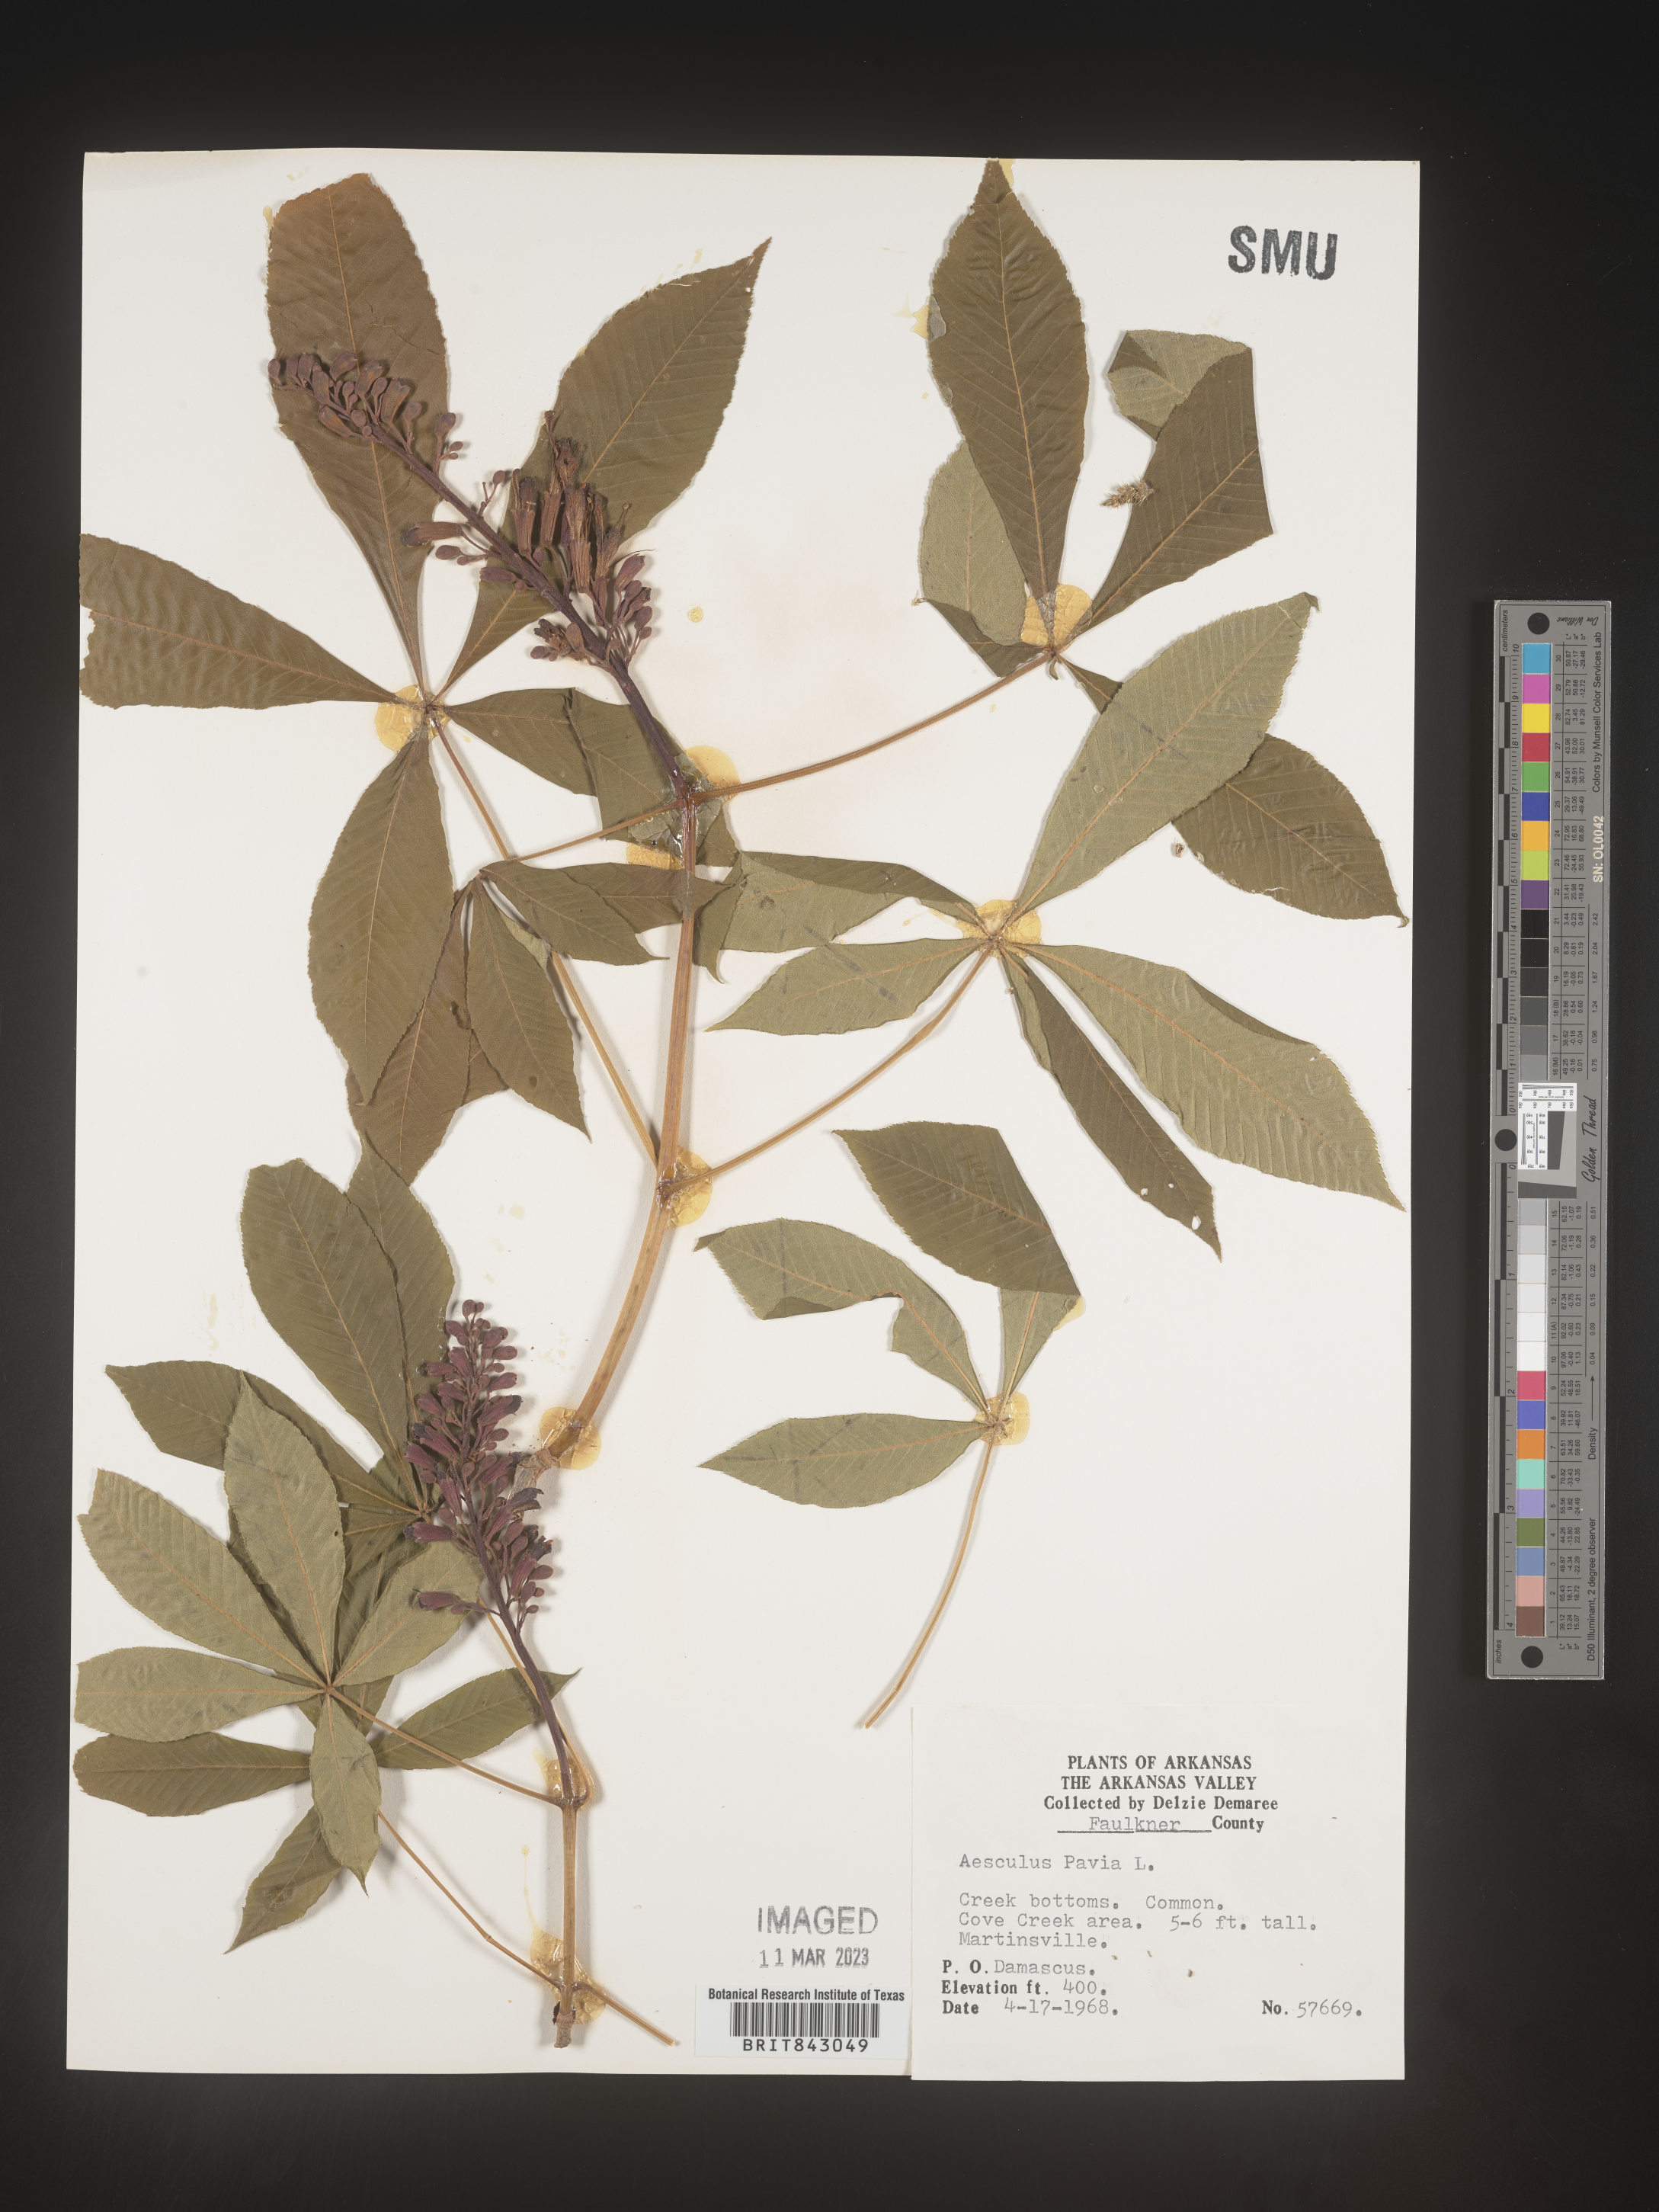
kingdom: Plantae
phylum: Tracheophyta
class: Magnoliopsida
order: Sapindales
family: Sapindaceae
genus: Aesculus
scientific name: Aesculus pavia
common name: Red buckeye
